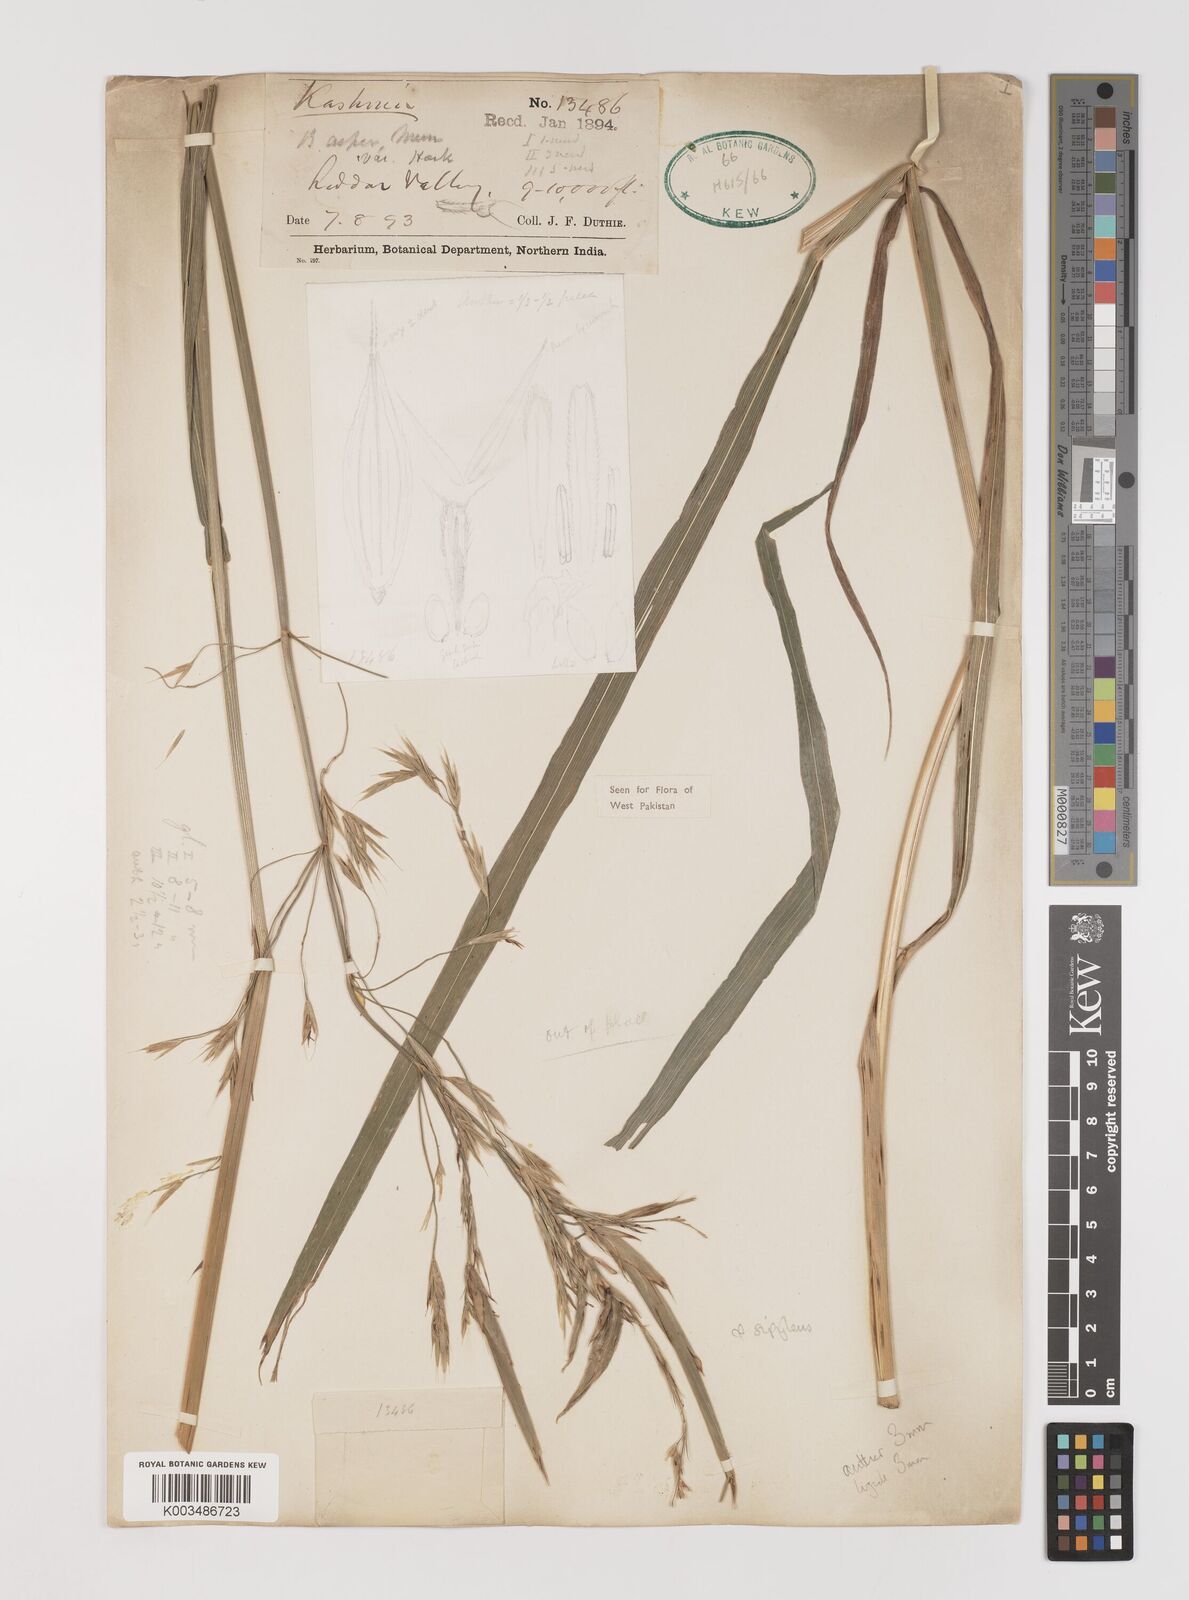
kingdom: Plantae
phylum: Tracheophyta
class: Liliopsida
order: Poales
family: Poaceae
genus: Brachypodium
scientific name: Brachypodium retusum
